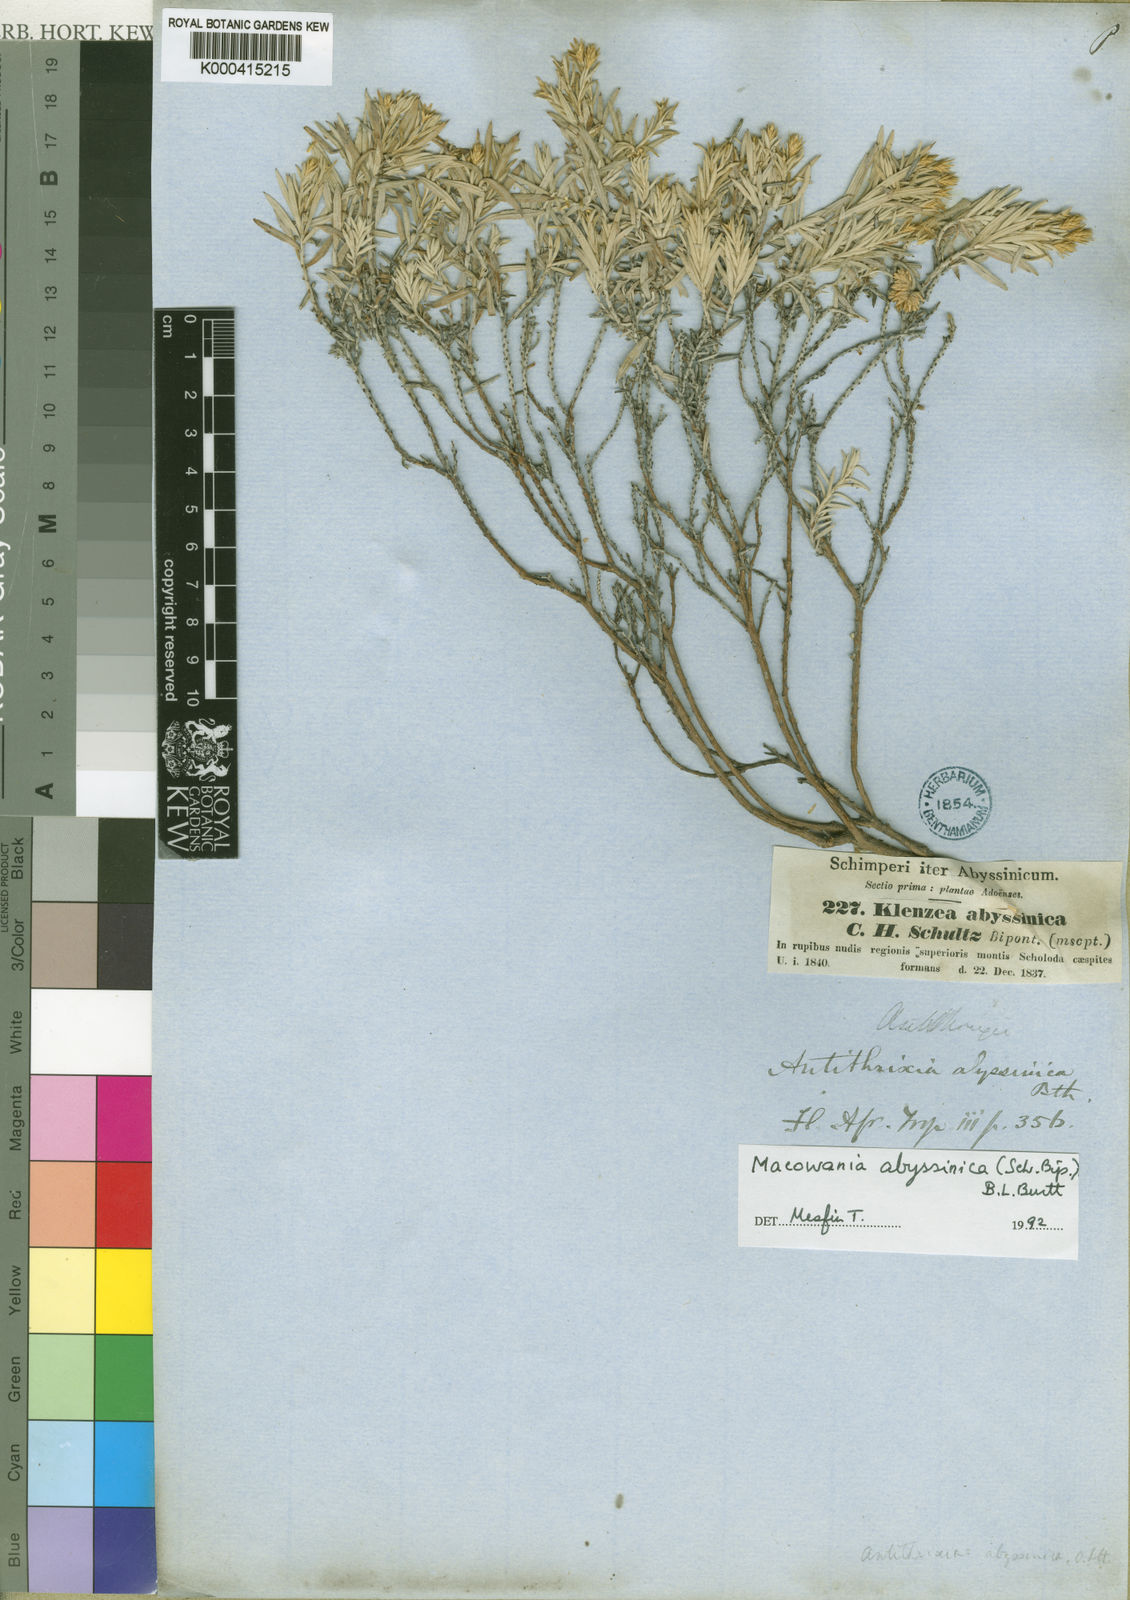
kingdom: Plantae
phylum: Tracheophyta
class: Magnoliopsida
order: Asterales
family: Asteraceae
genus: Arrowsmithia
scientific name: Arrowsmithia abyssinica
